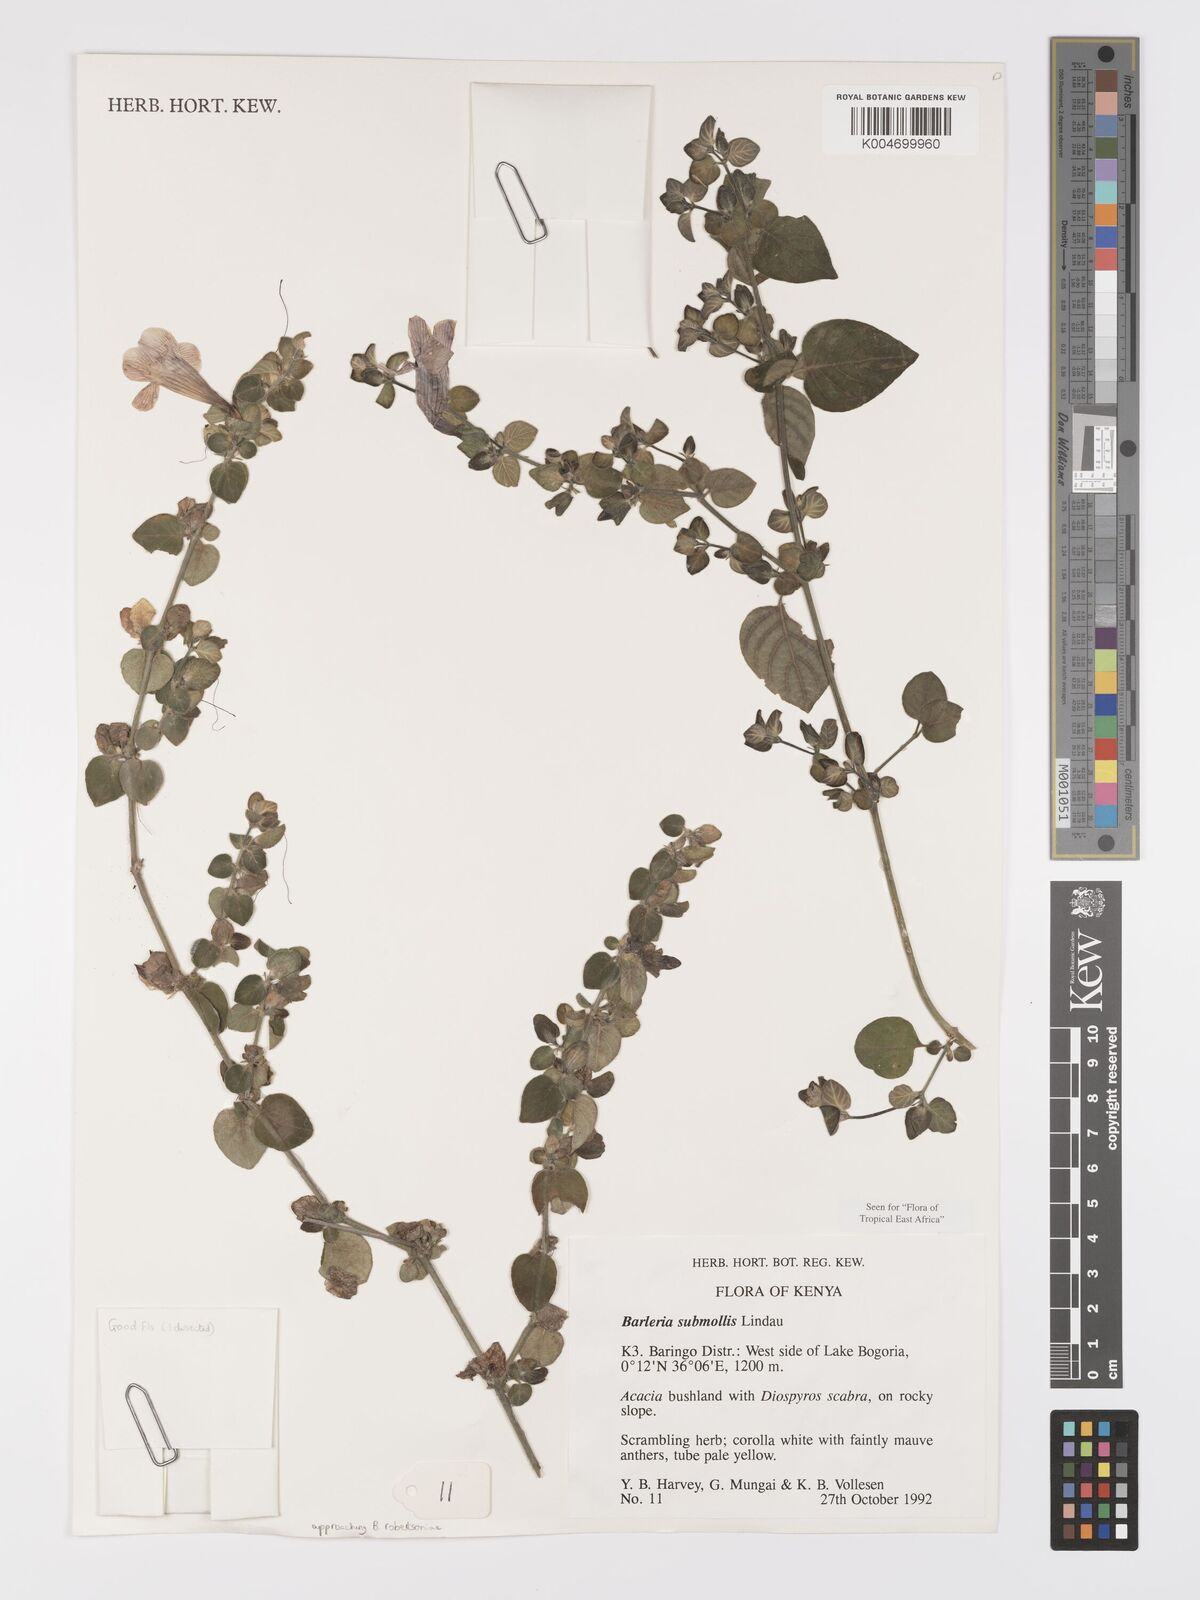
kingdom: Plantae
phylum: Tracheophyta
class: Magnoliopsida
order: Lamiales
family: Acanthaceae
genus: Barleria
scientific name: Barleria submollis
